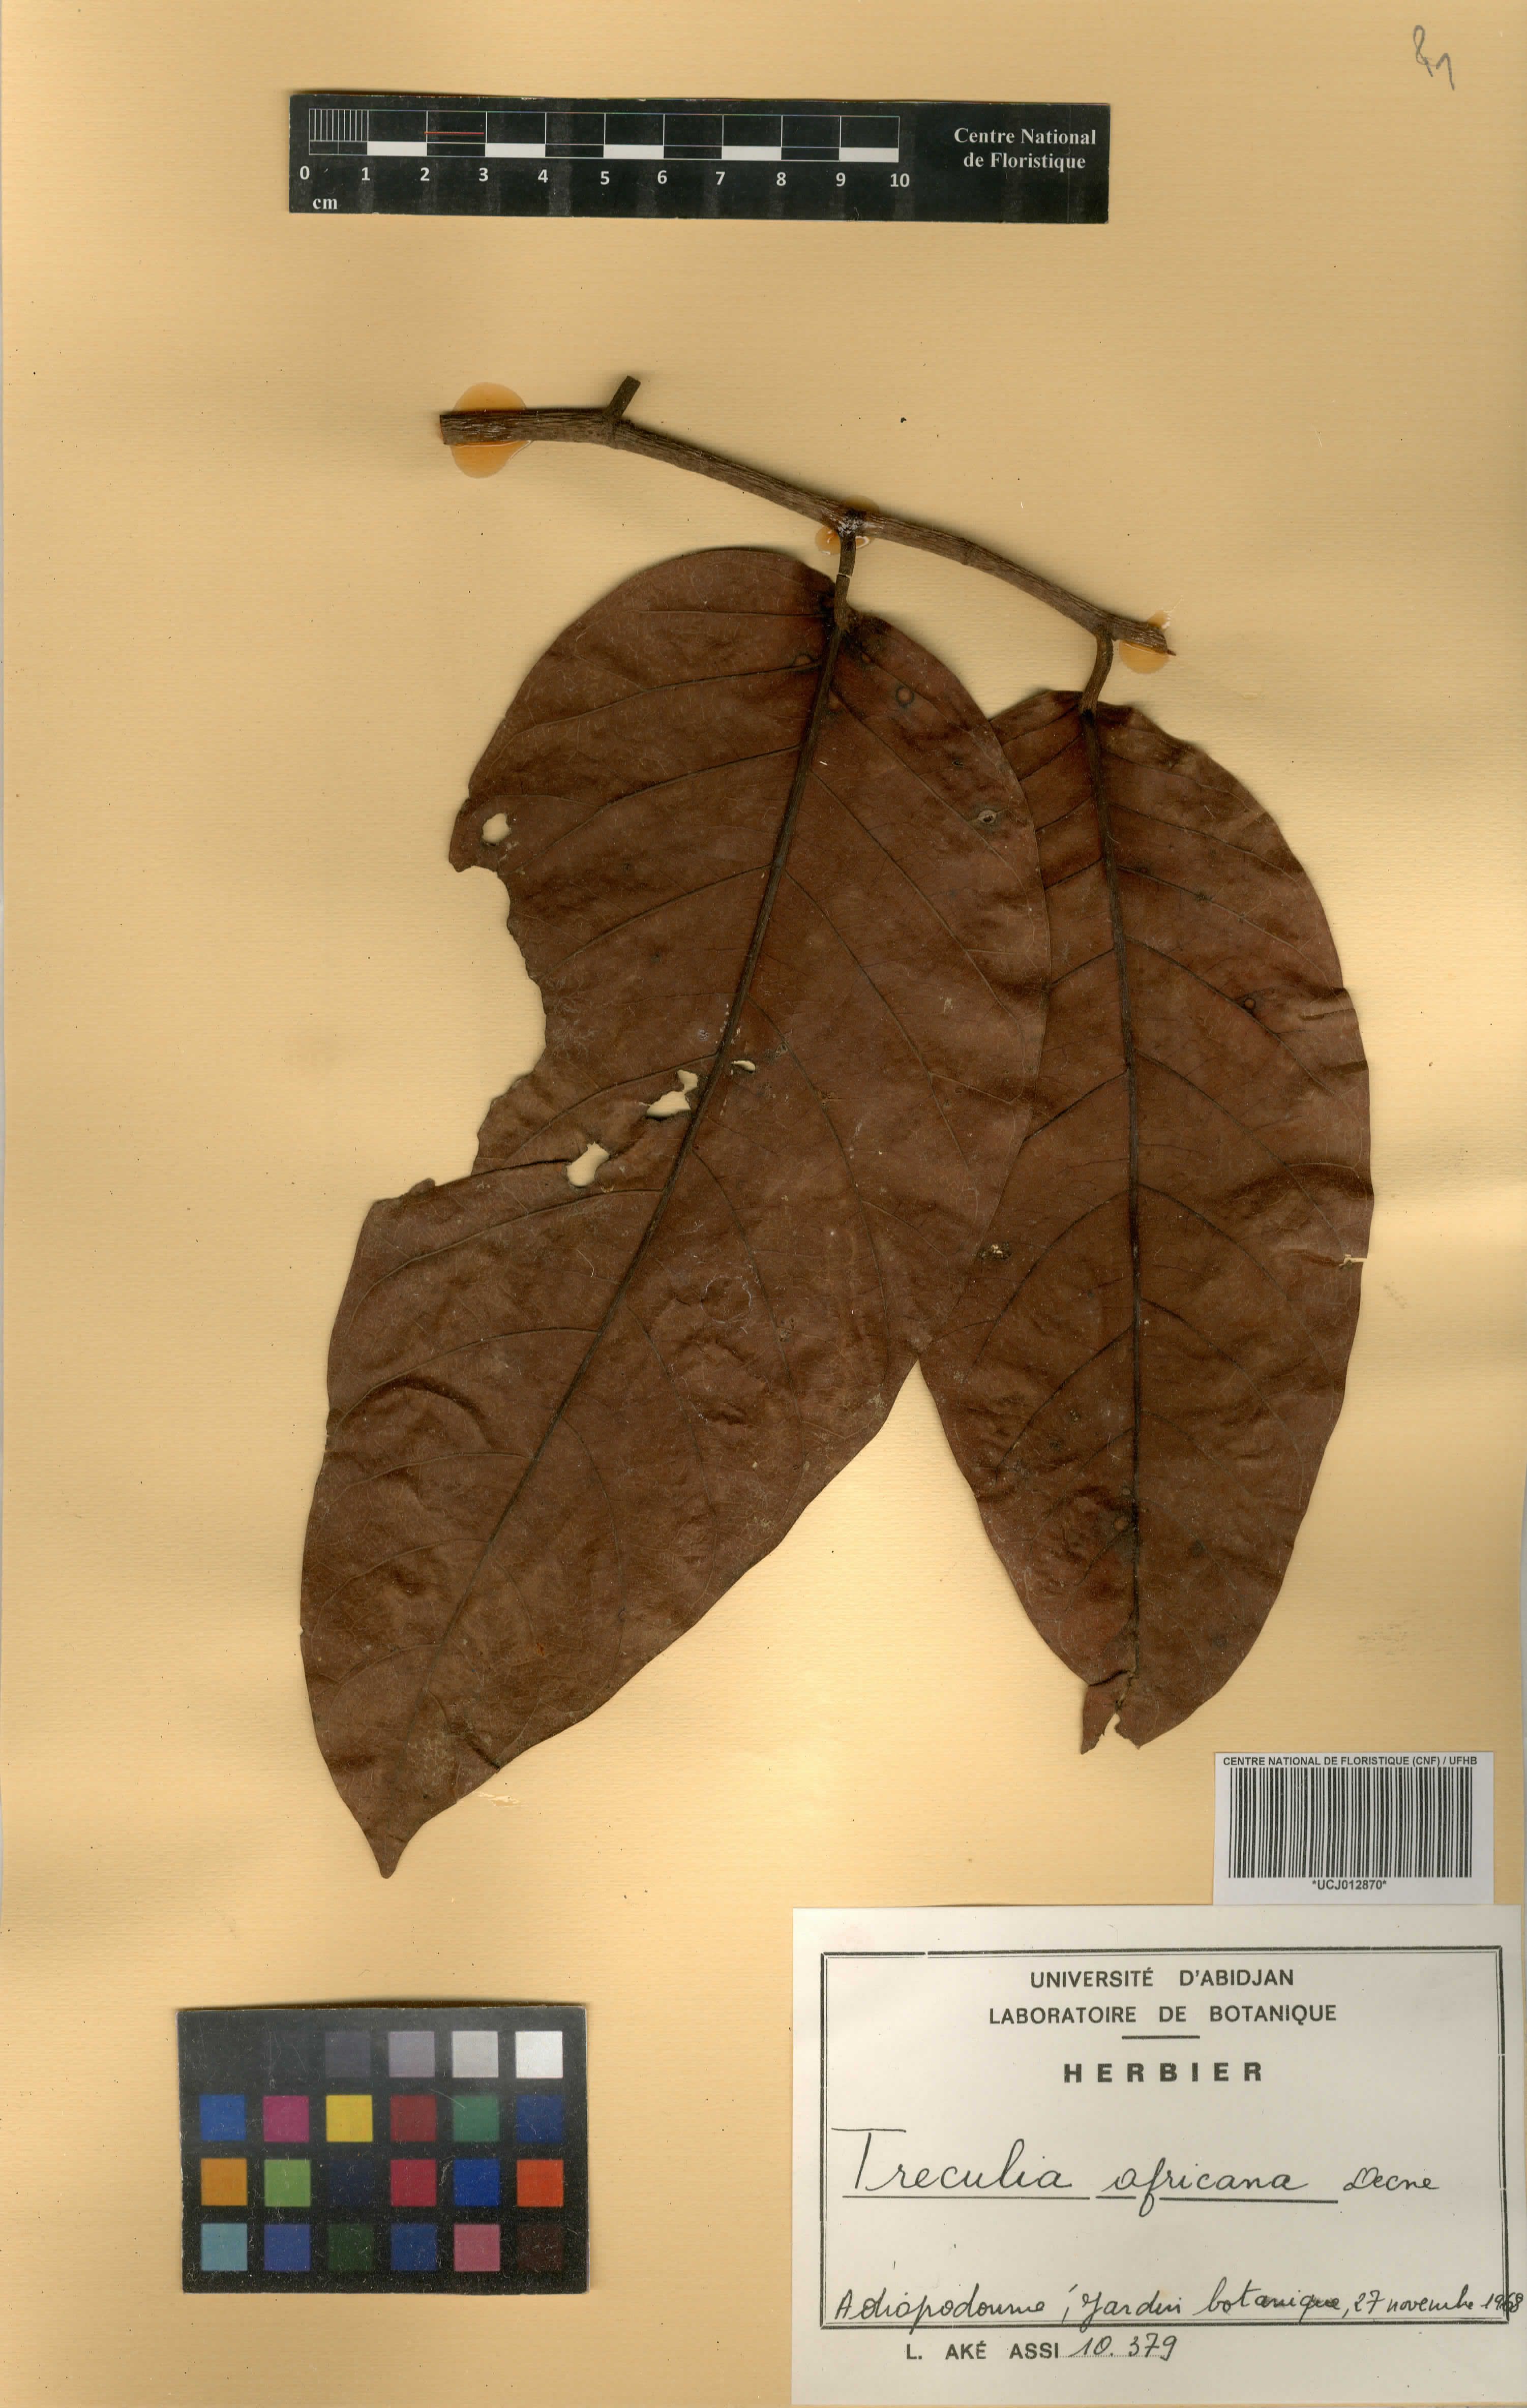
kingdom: Plantae
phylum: Tracheophyta
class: Magnoliopsida
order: Rosales
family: Moraceae
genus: Treculia
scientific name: Treculia africana
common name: African breadfruit
